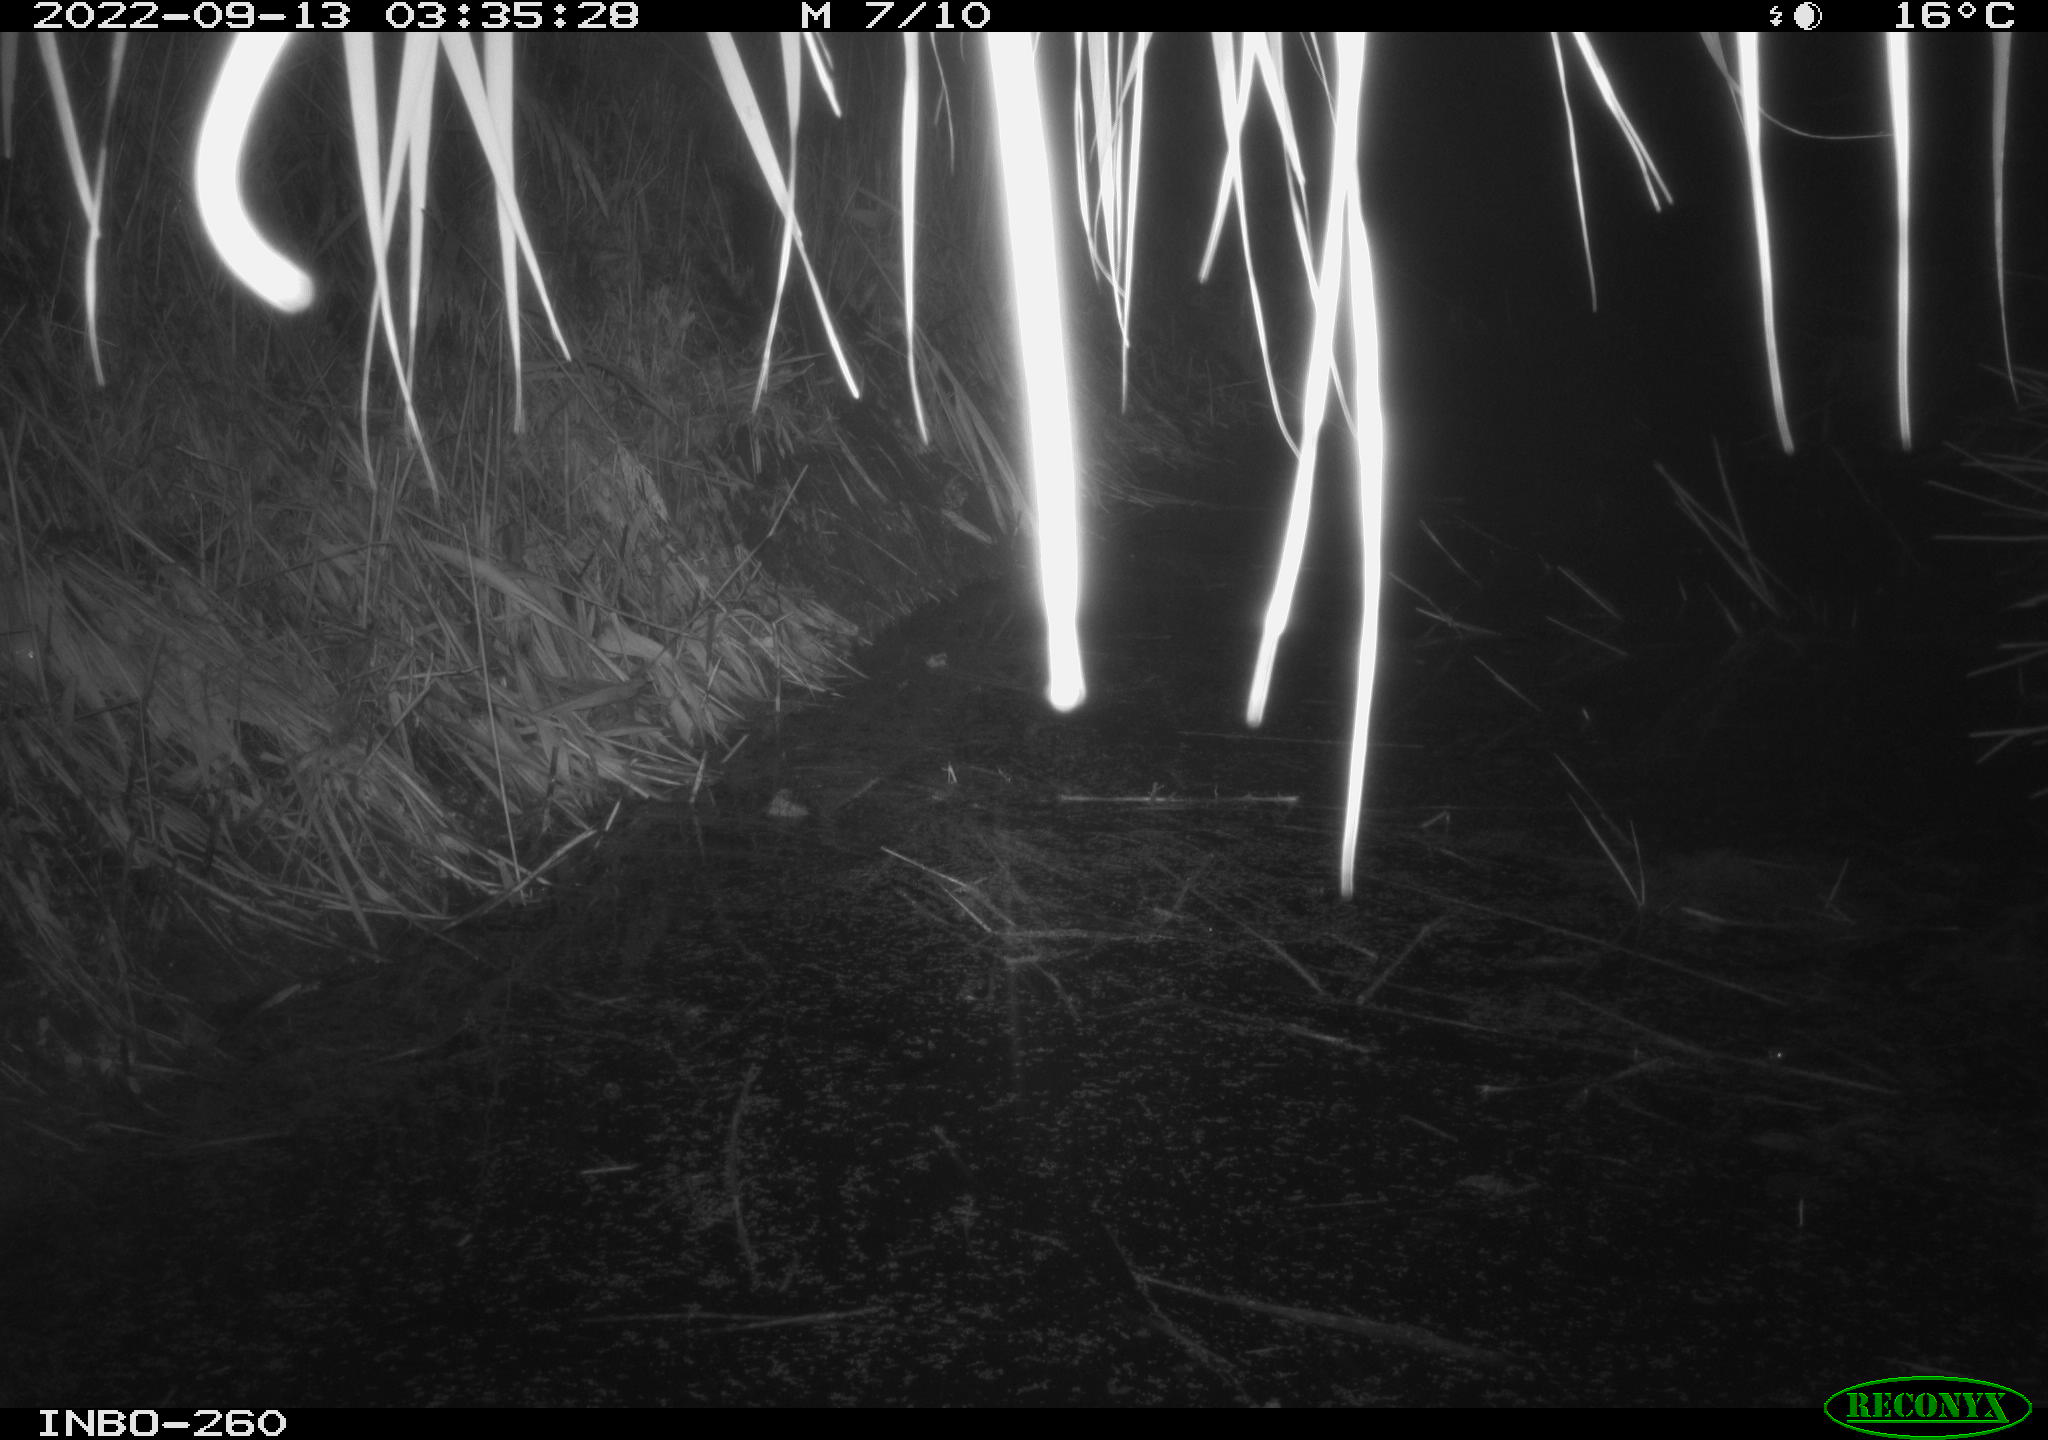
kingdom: Animalia
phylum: Chordata
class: Mammalia
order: Rodentia
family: Muridae
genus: Rattus
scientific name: Rattus norvegicus
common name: Brown rat
